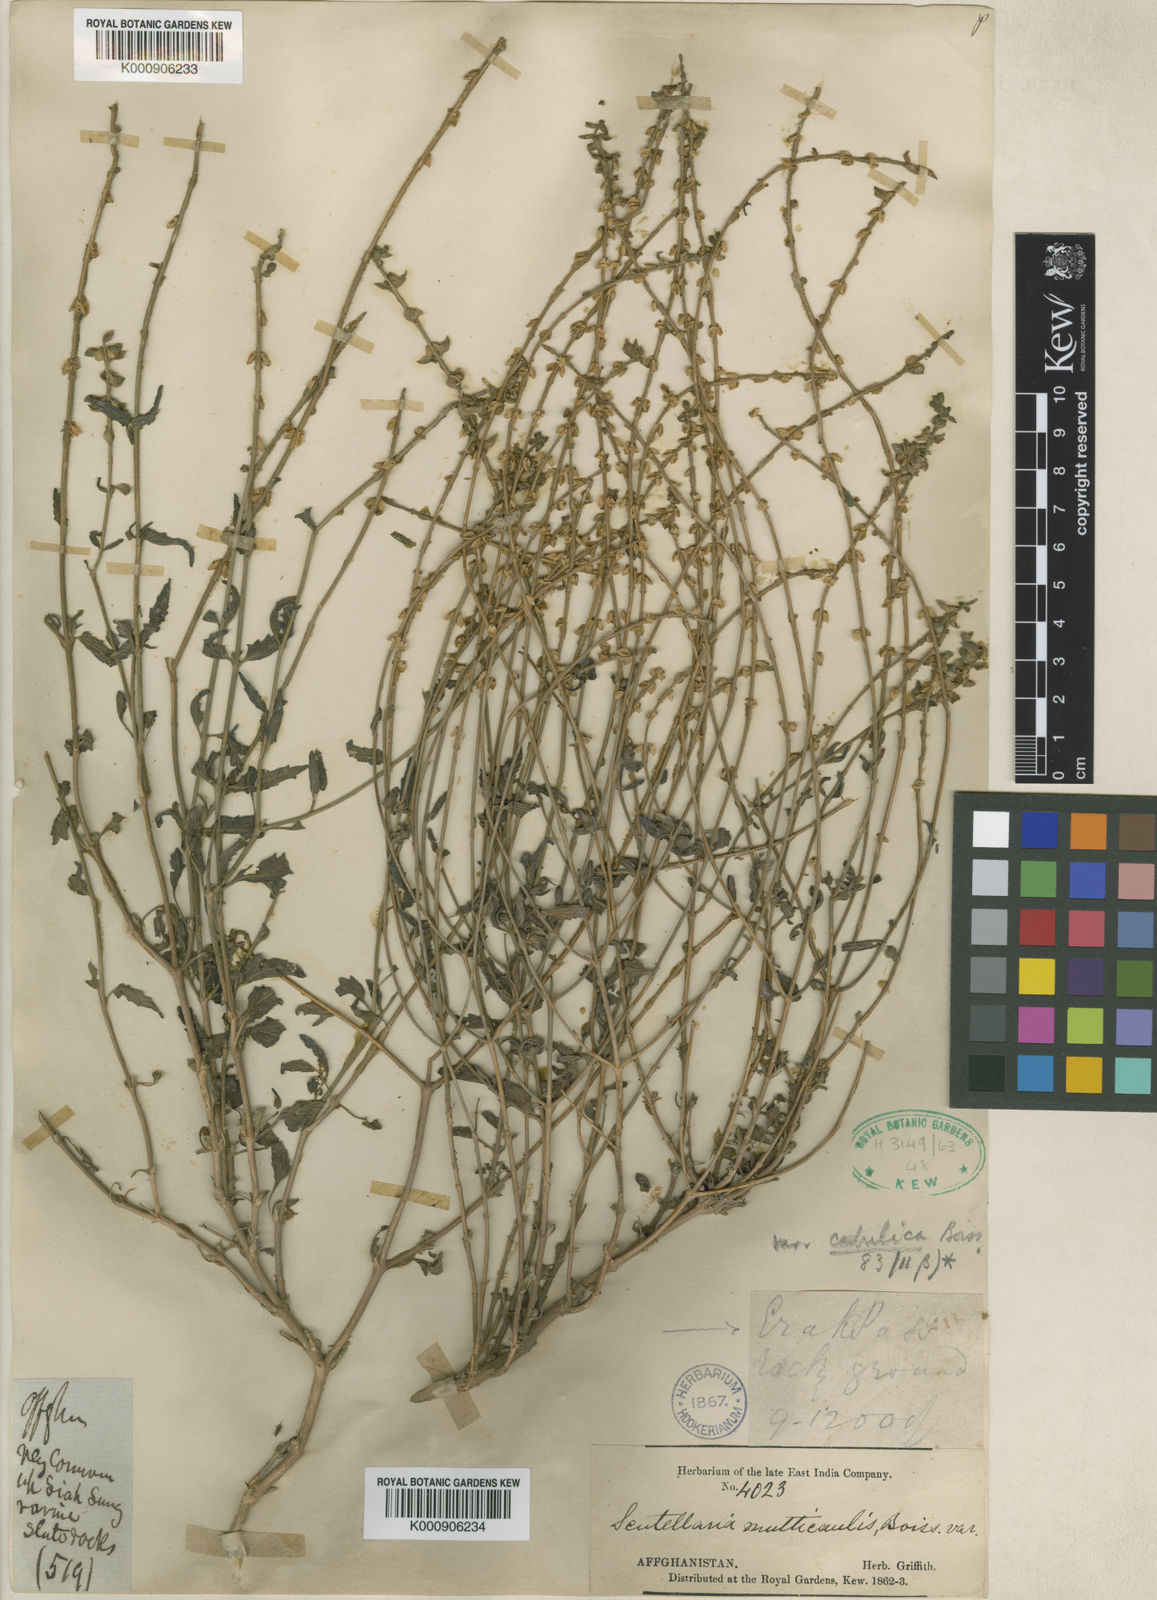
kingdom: Plantae
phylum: Tracheophyta
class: Magnoliopsida
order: Lamiales
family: Lamiaceae
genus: Scutellaria
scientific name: Scutellaria multicaulis
